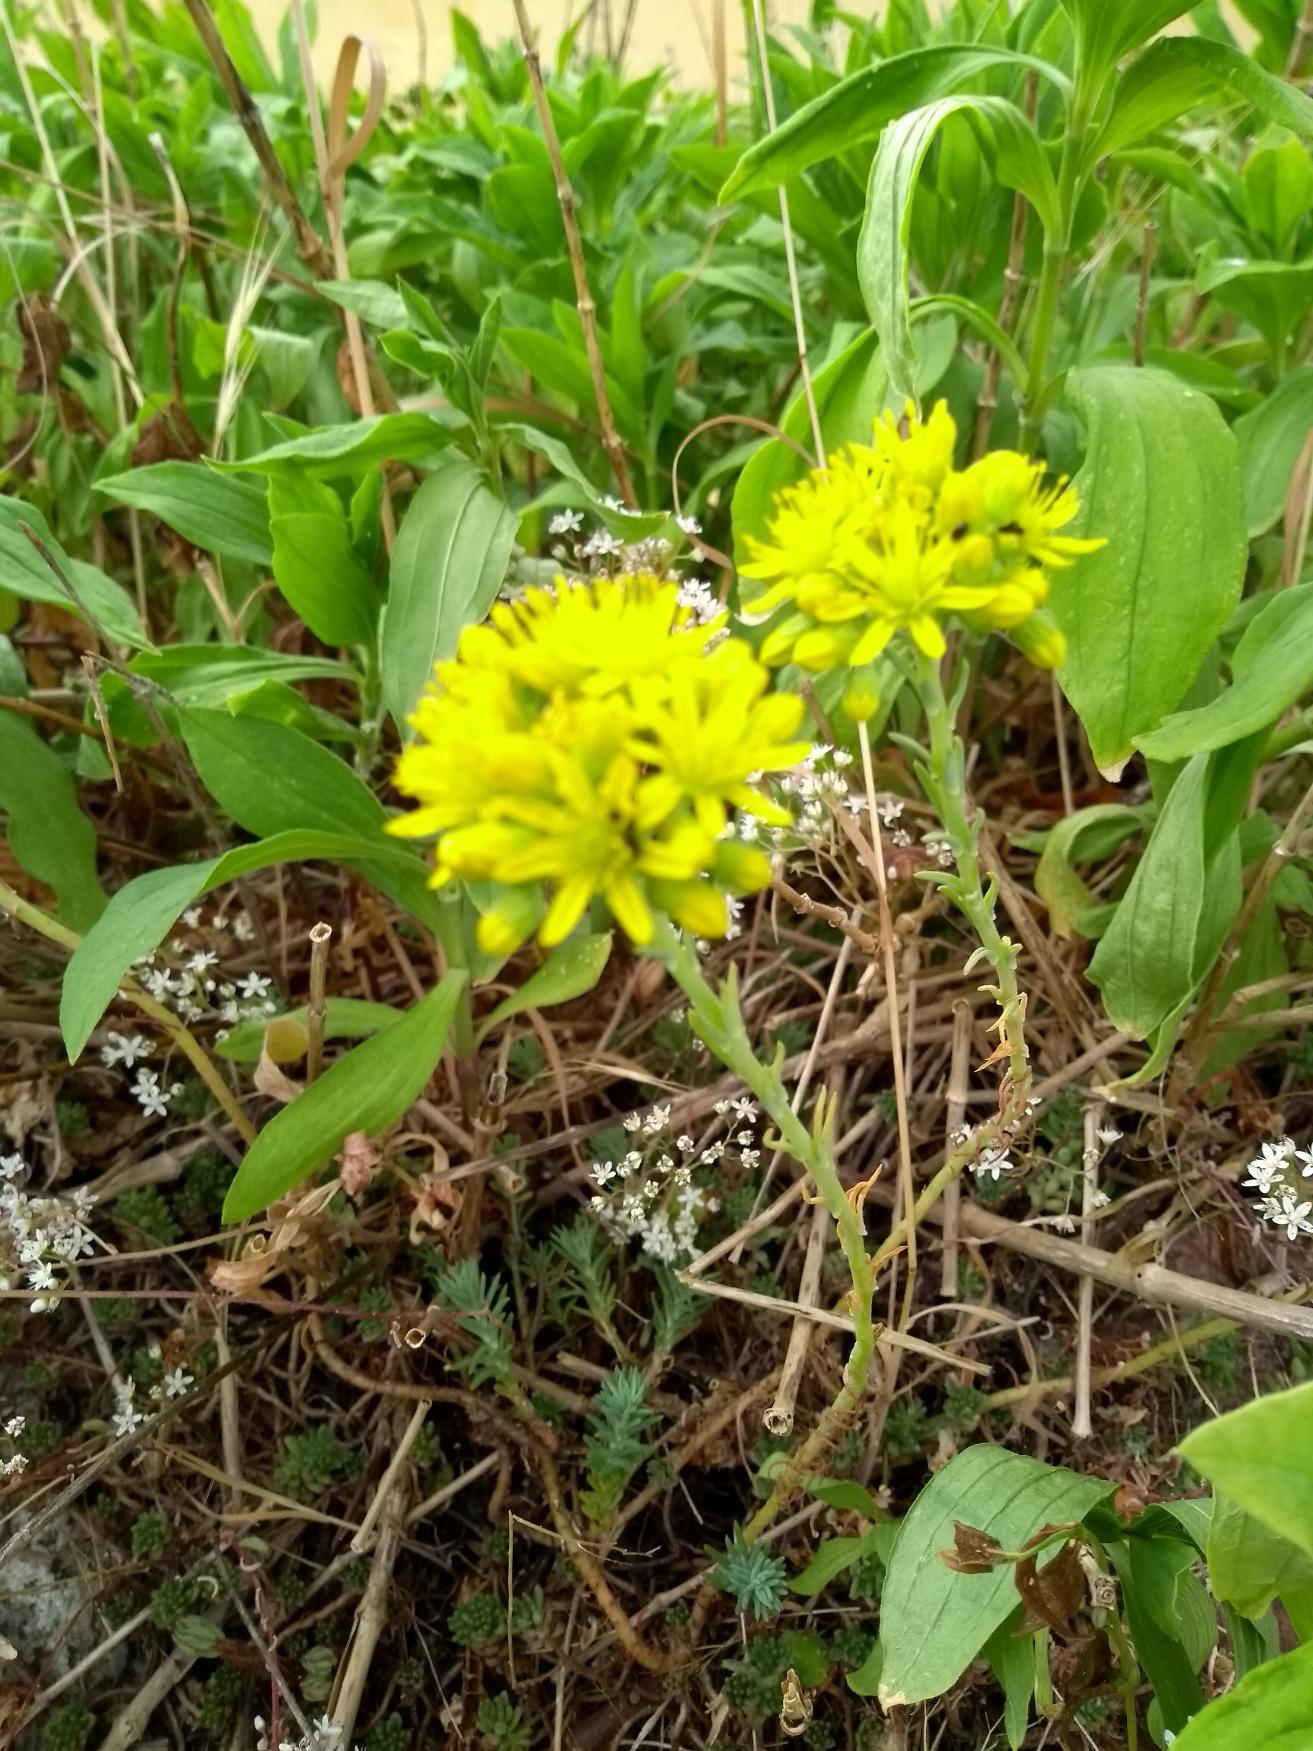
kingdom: Plantae
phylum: Tracheophyta
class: Magnoliopsida
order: Saxifragales
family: Crassulaceae
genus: Petrosedum
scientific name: Petrosedum rupestre
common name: Bjerg-stenurt
